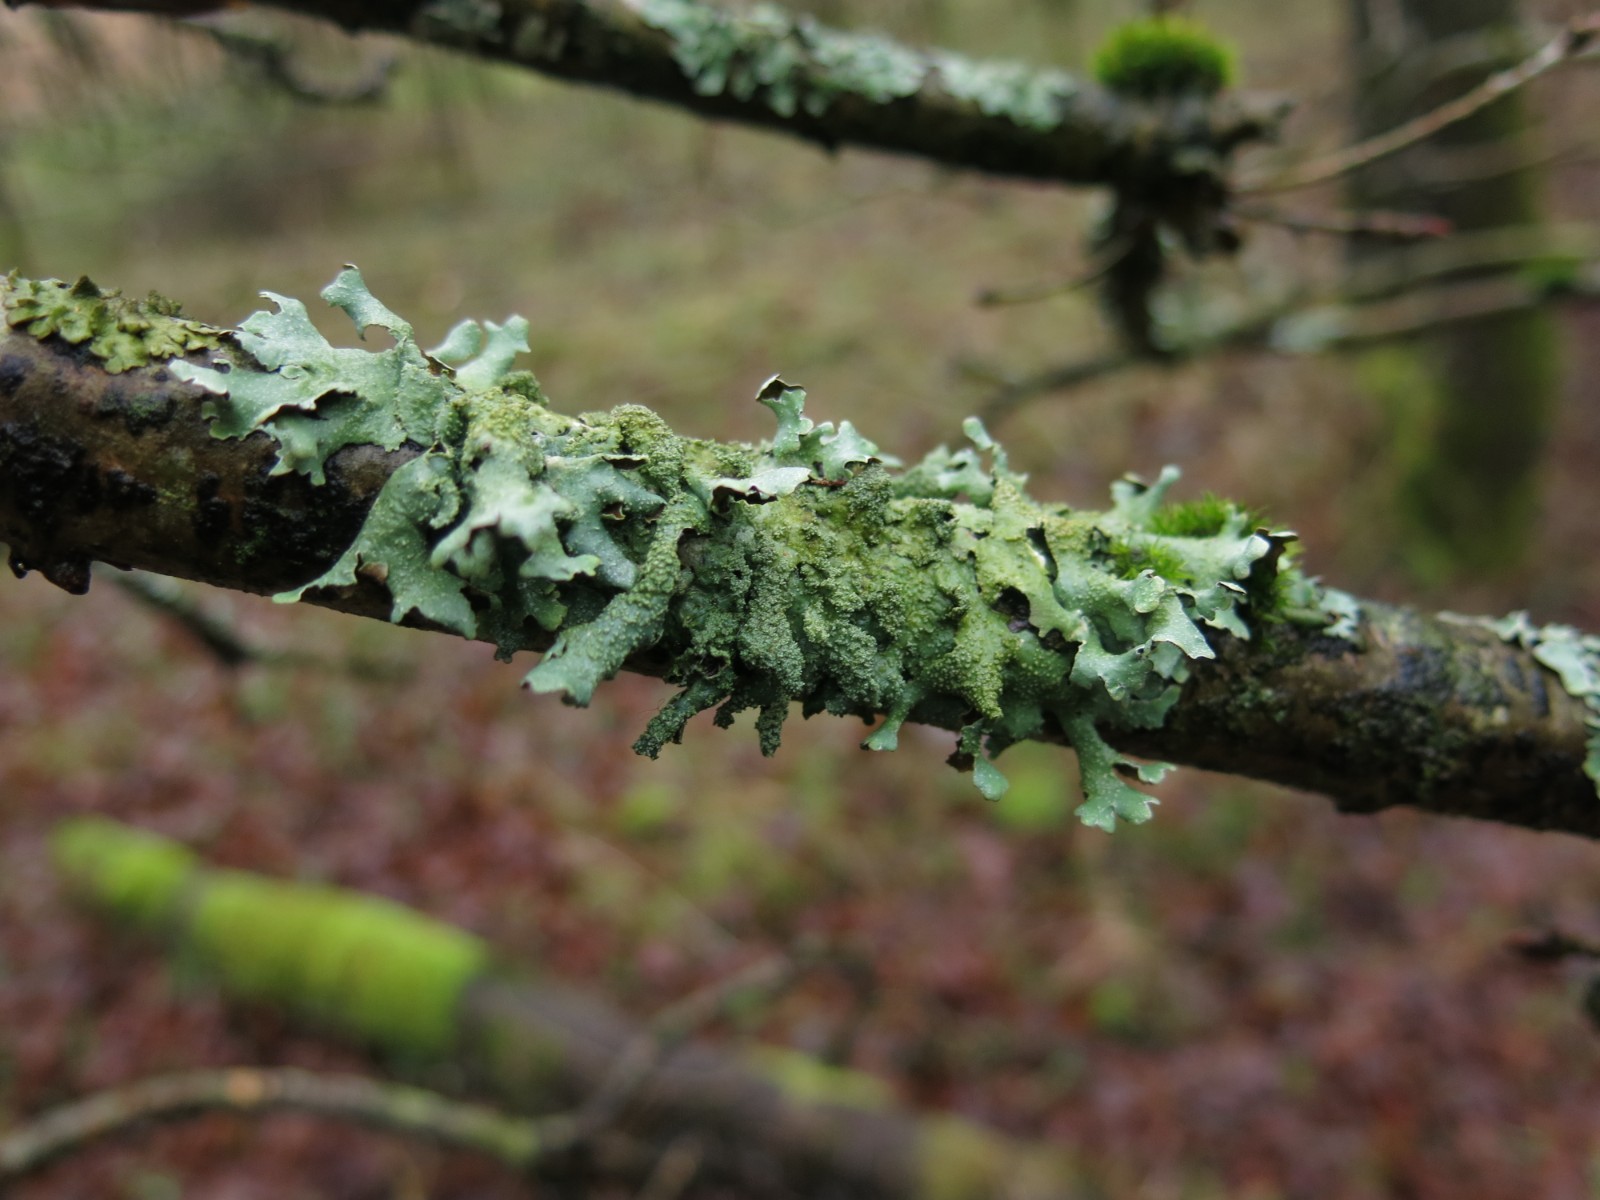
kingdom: Fungi
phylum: Ascomycota
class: Lecanoromycetes
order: Lecanorales
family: Parmeliaceae
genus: Parmelia
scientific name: Parmelia submontana
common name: langlobet skållav
